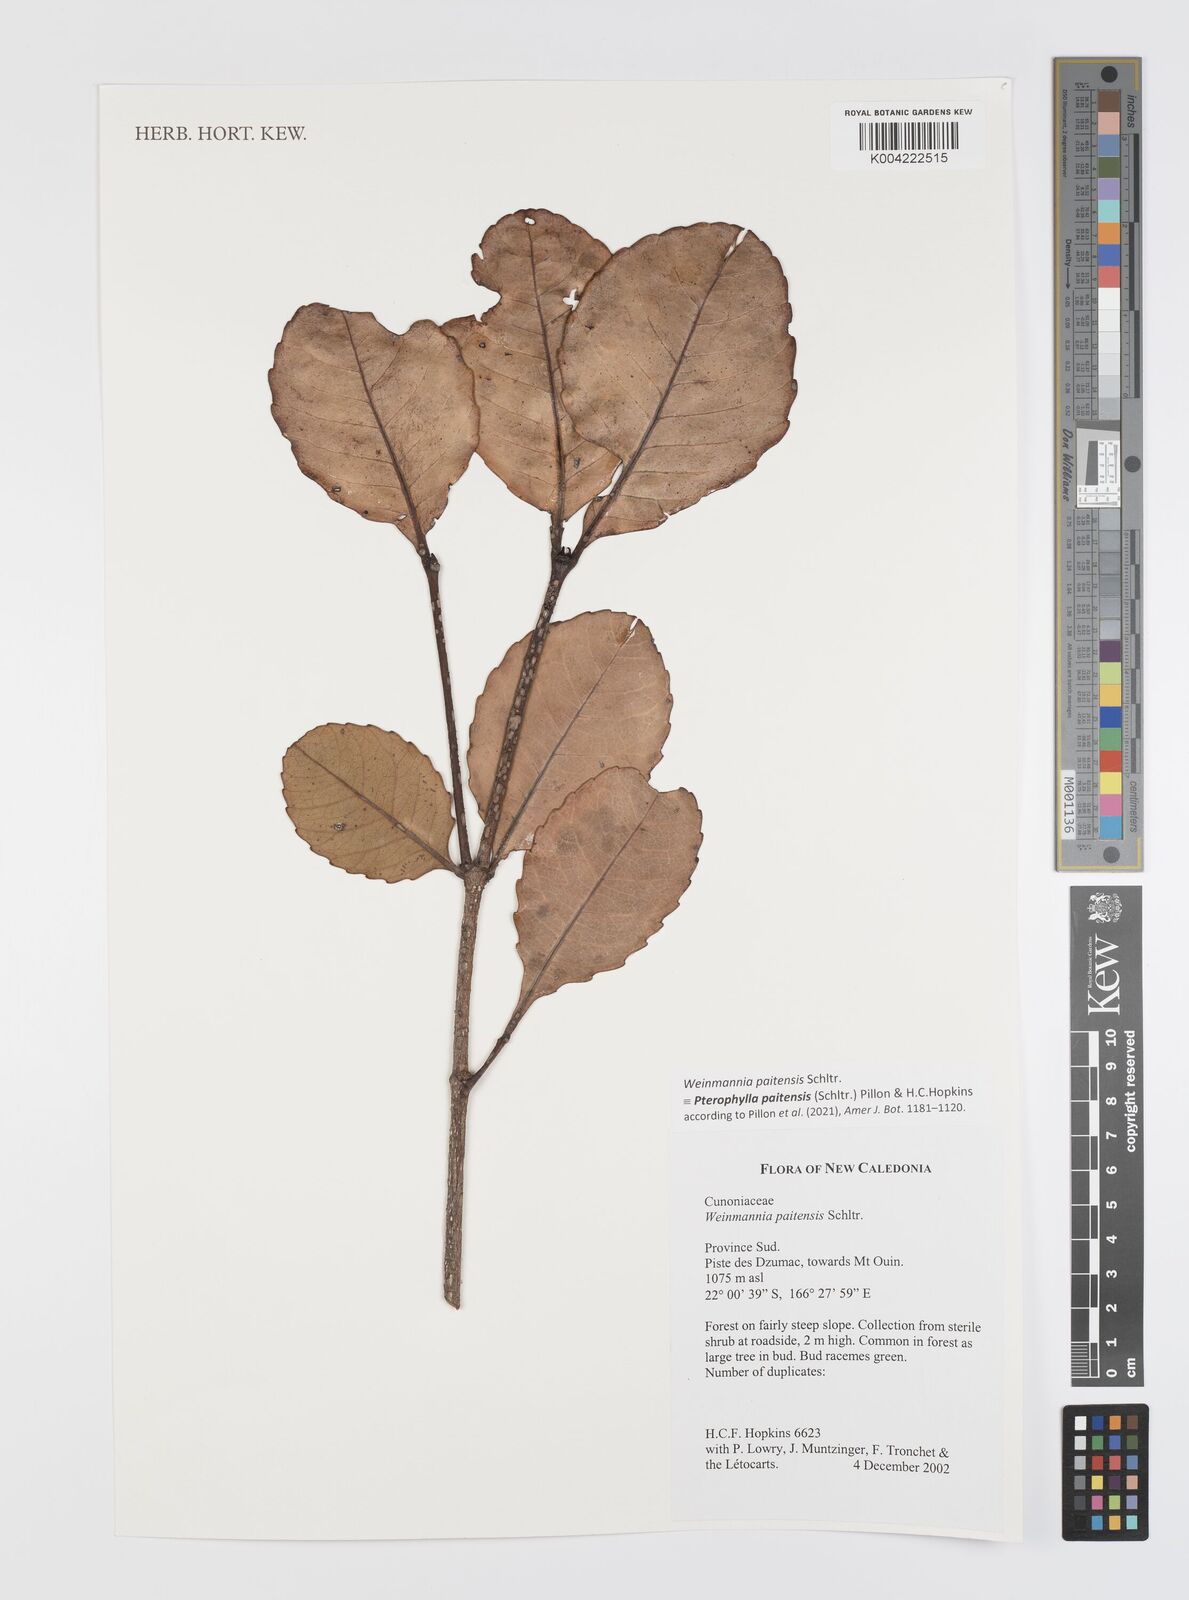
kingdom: Plantae
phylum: Tracheophyta
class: Magnoliopsida
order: Oxalidales
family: Cunoniaceae
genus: Pterophylla
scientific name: Pterophylla paitensis
